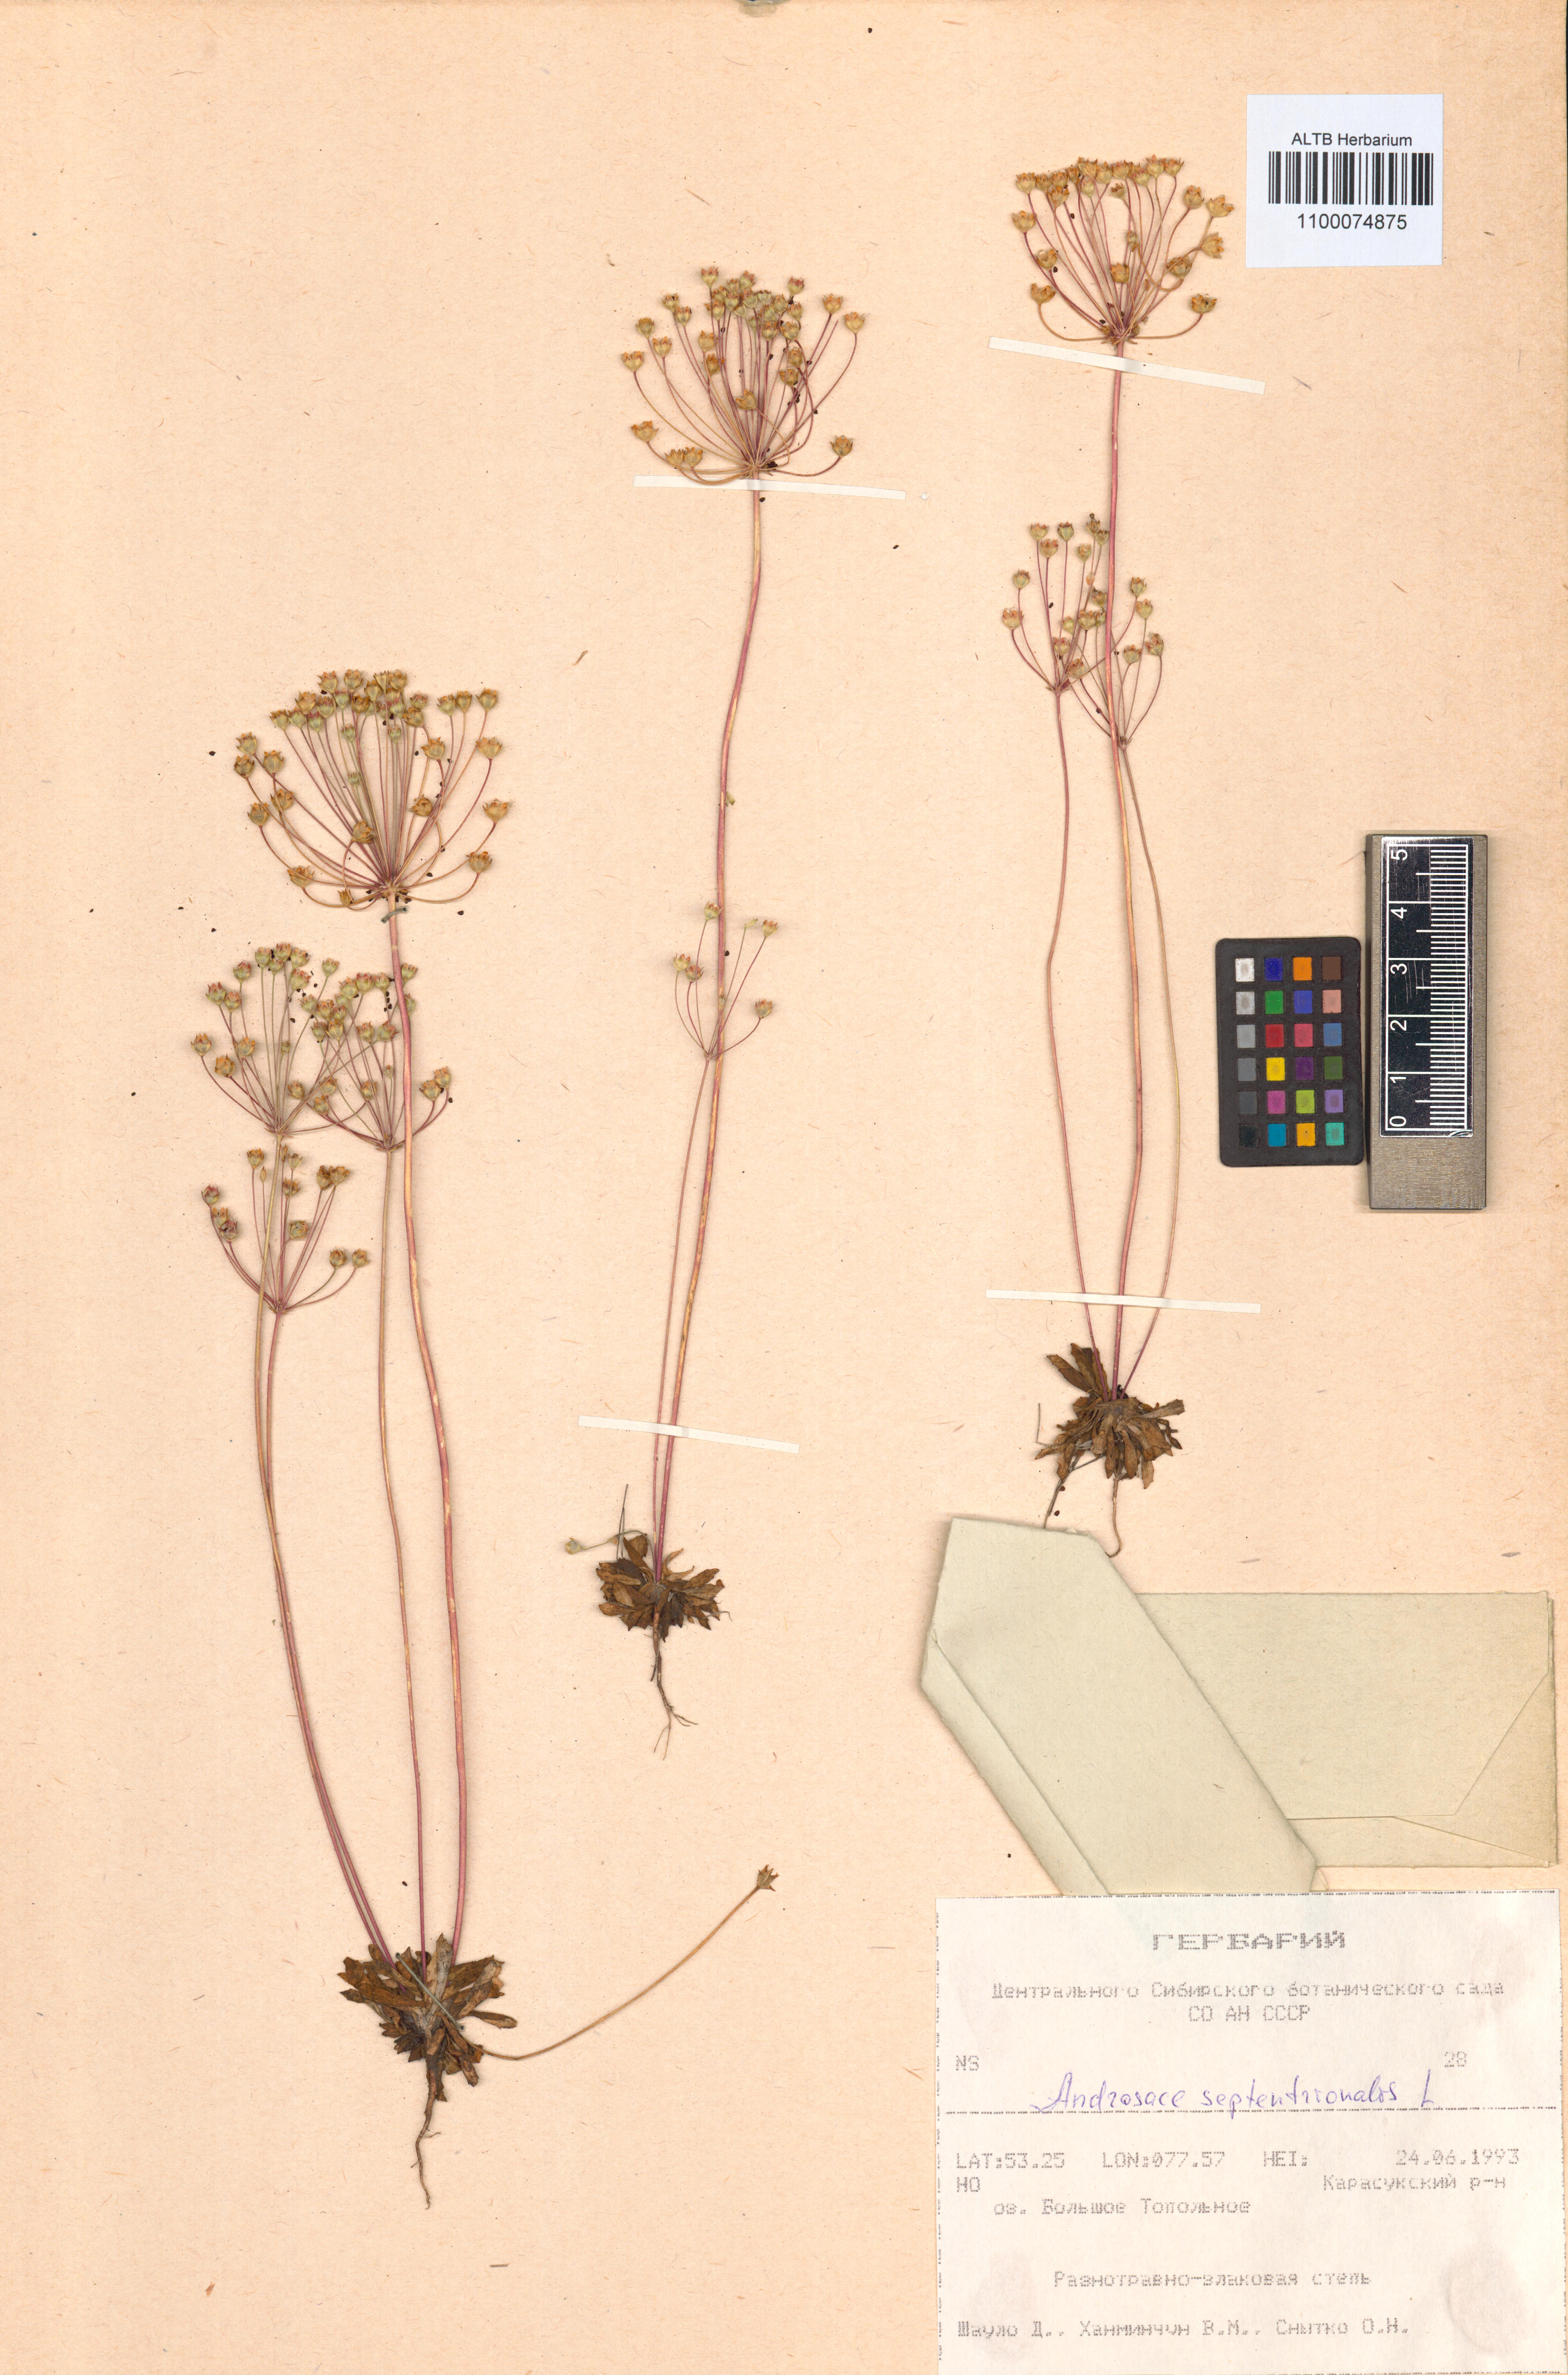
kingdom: Plantae
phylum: Tracheophyta
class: Magnoliopsida
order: Ericales
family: Primulaceae
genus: Androsace
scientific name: Androsace septentrionalis
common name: Hairy northern fairy-candelabra
